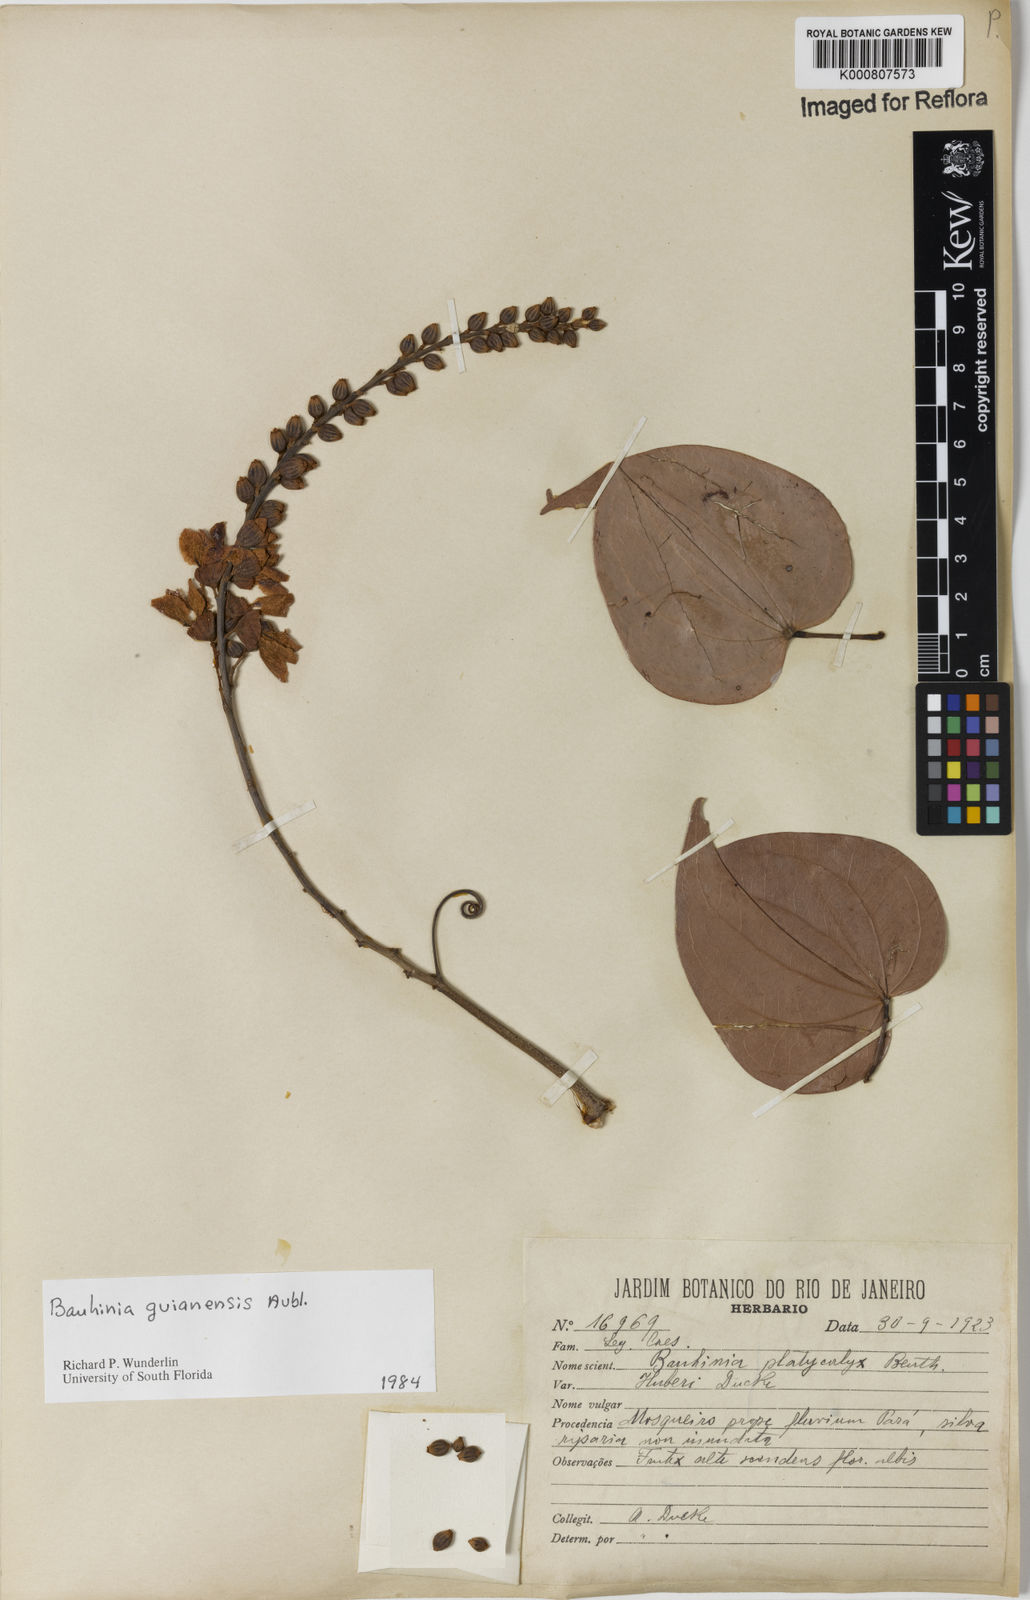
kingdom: Plantae
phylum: Tracheophyta
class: Magnoliopsida
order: Fabales
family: Fabaceae
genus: Schnella
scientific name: Schnella guianensis
